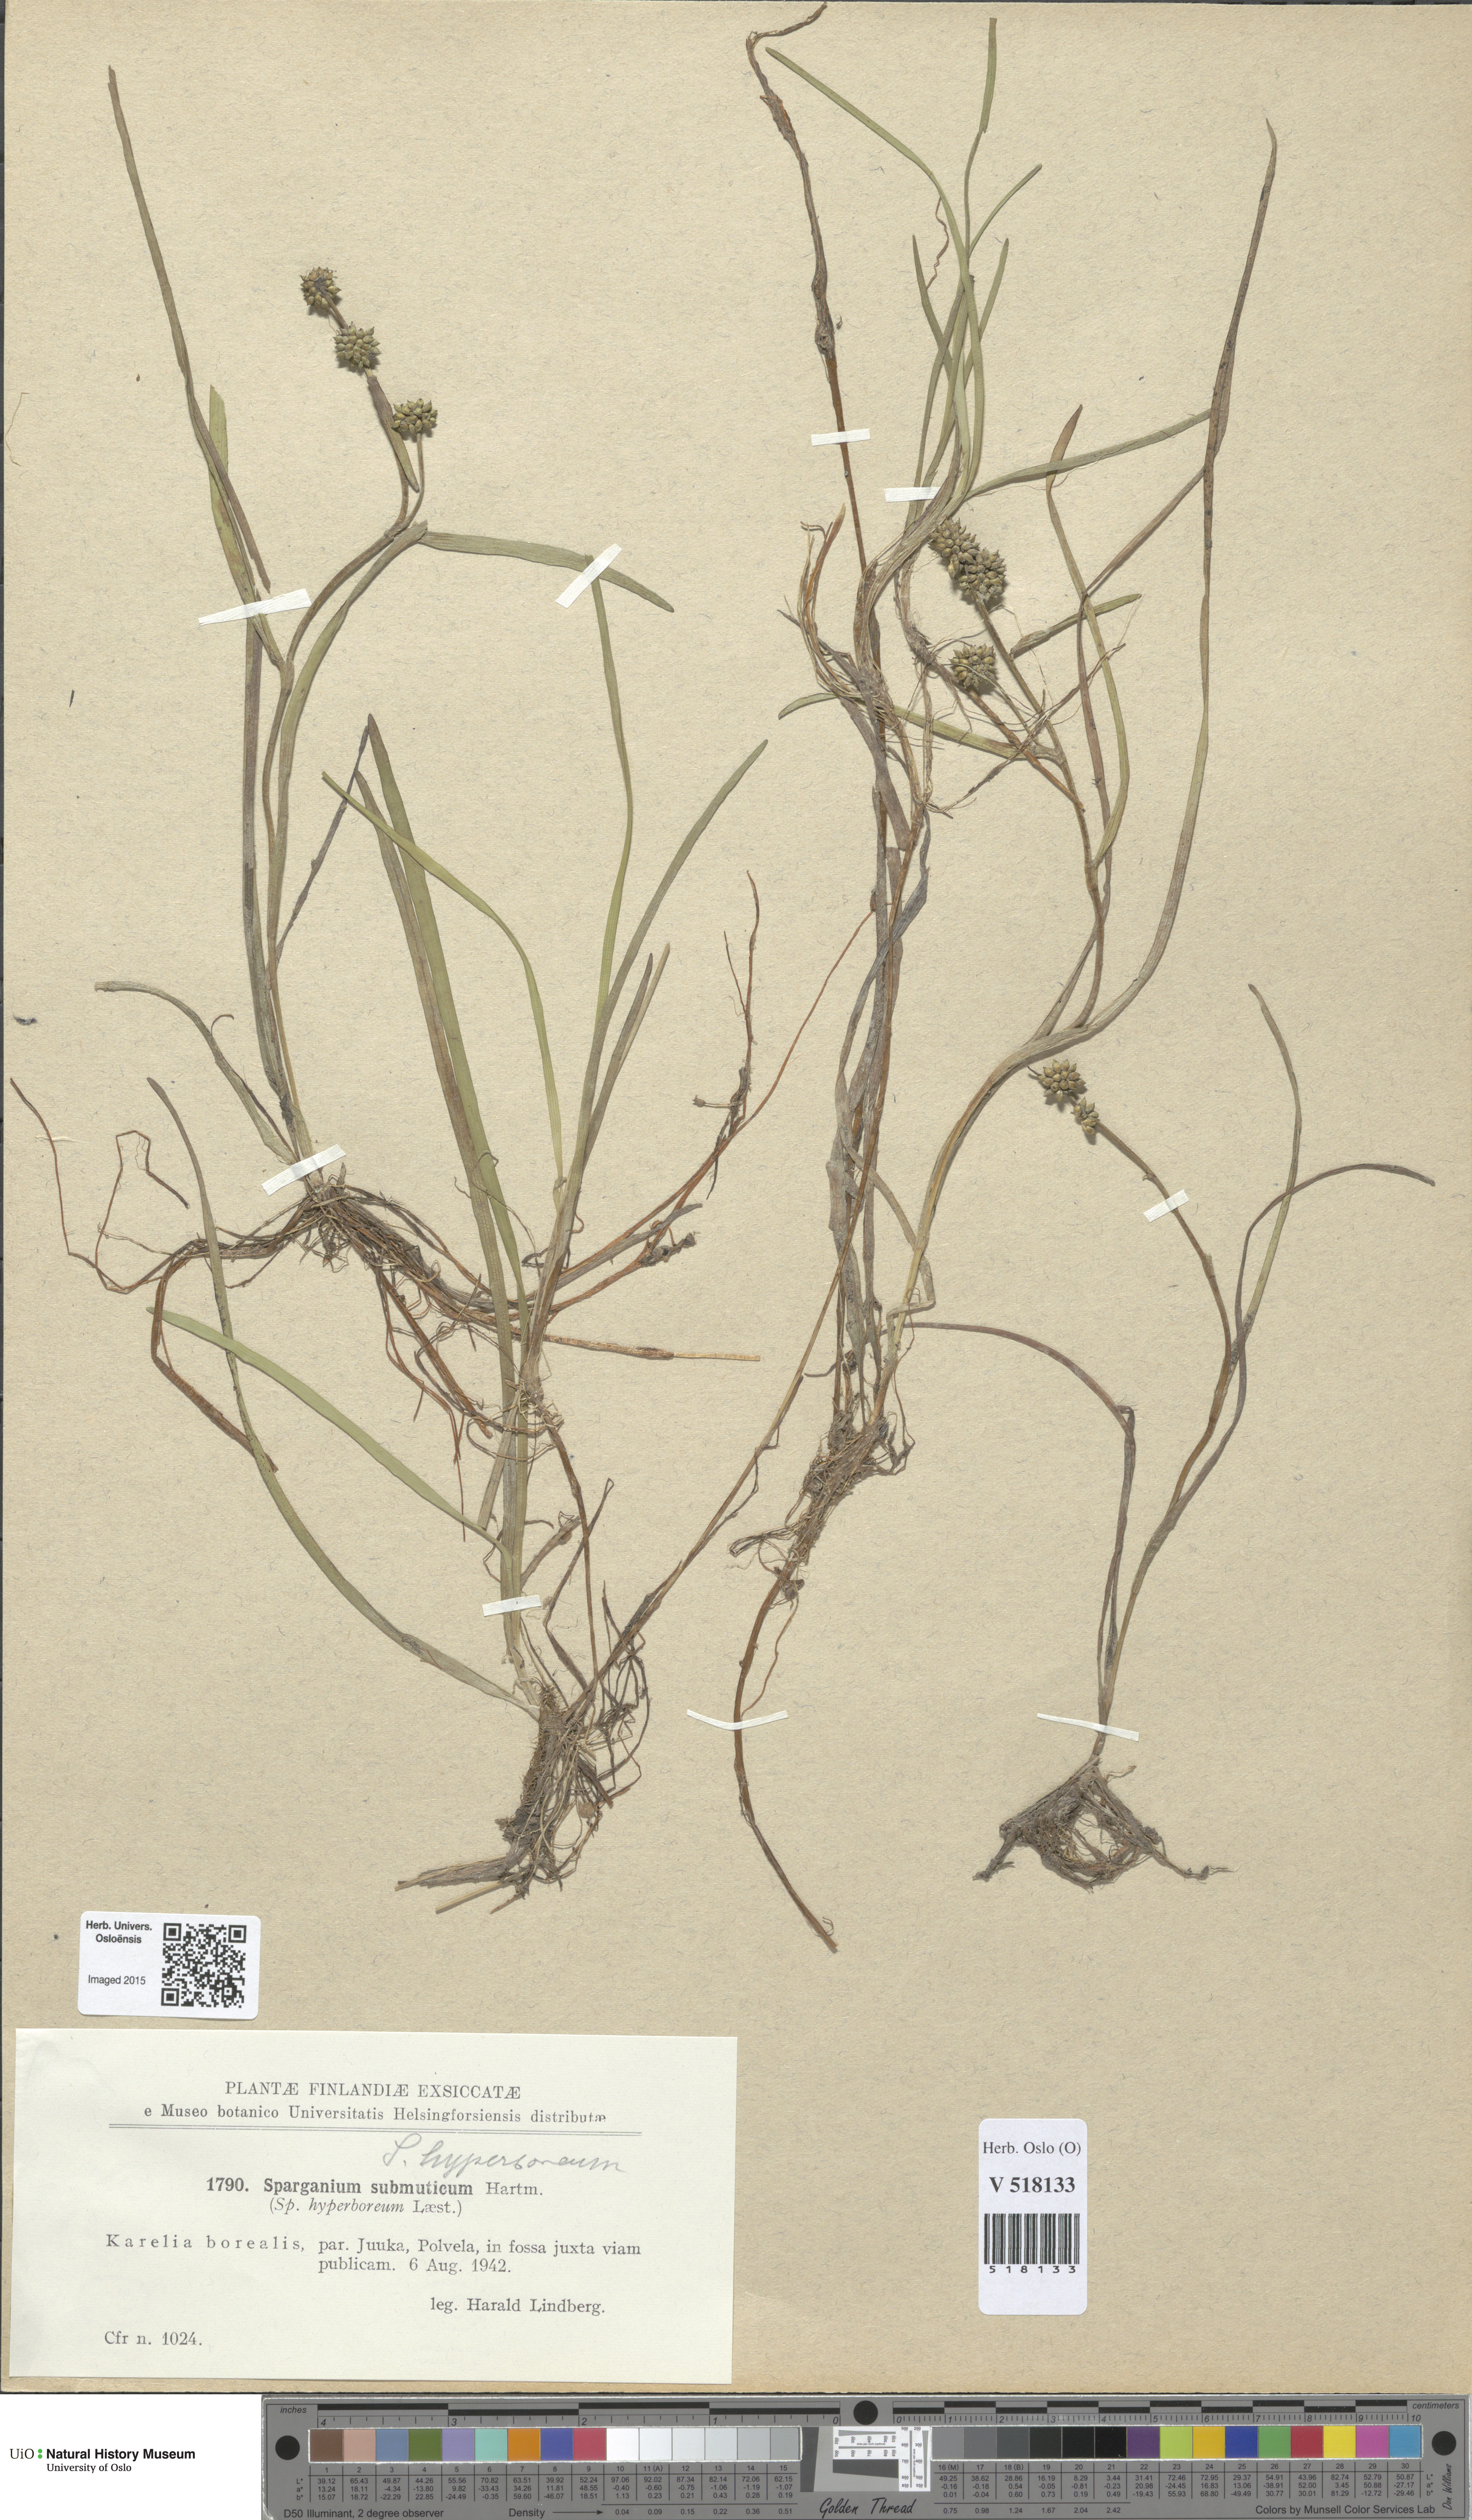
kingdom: Plantae
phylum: Tracheophyta
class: Liliopsida
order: Poales
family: Typhaceae
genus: Sparganium
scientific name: Sparganium hyperboreum
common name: Arctic burreed
